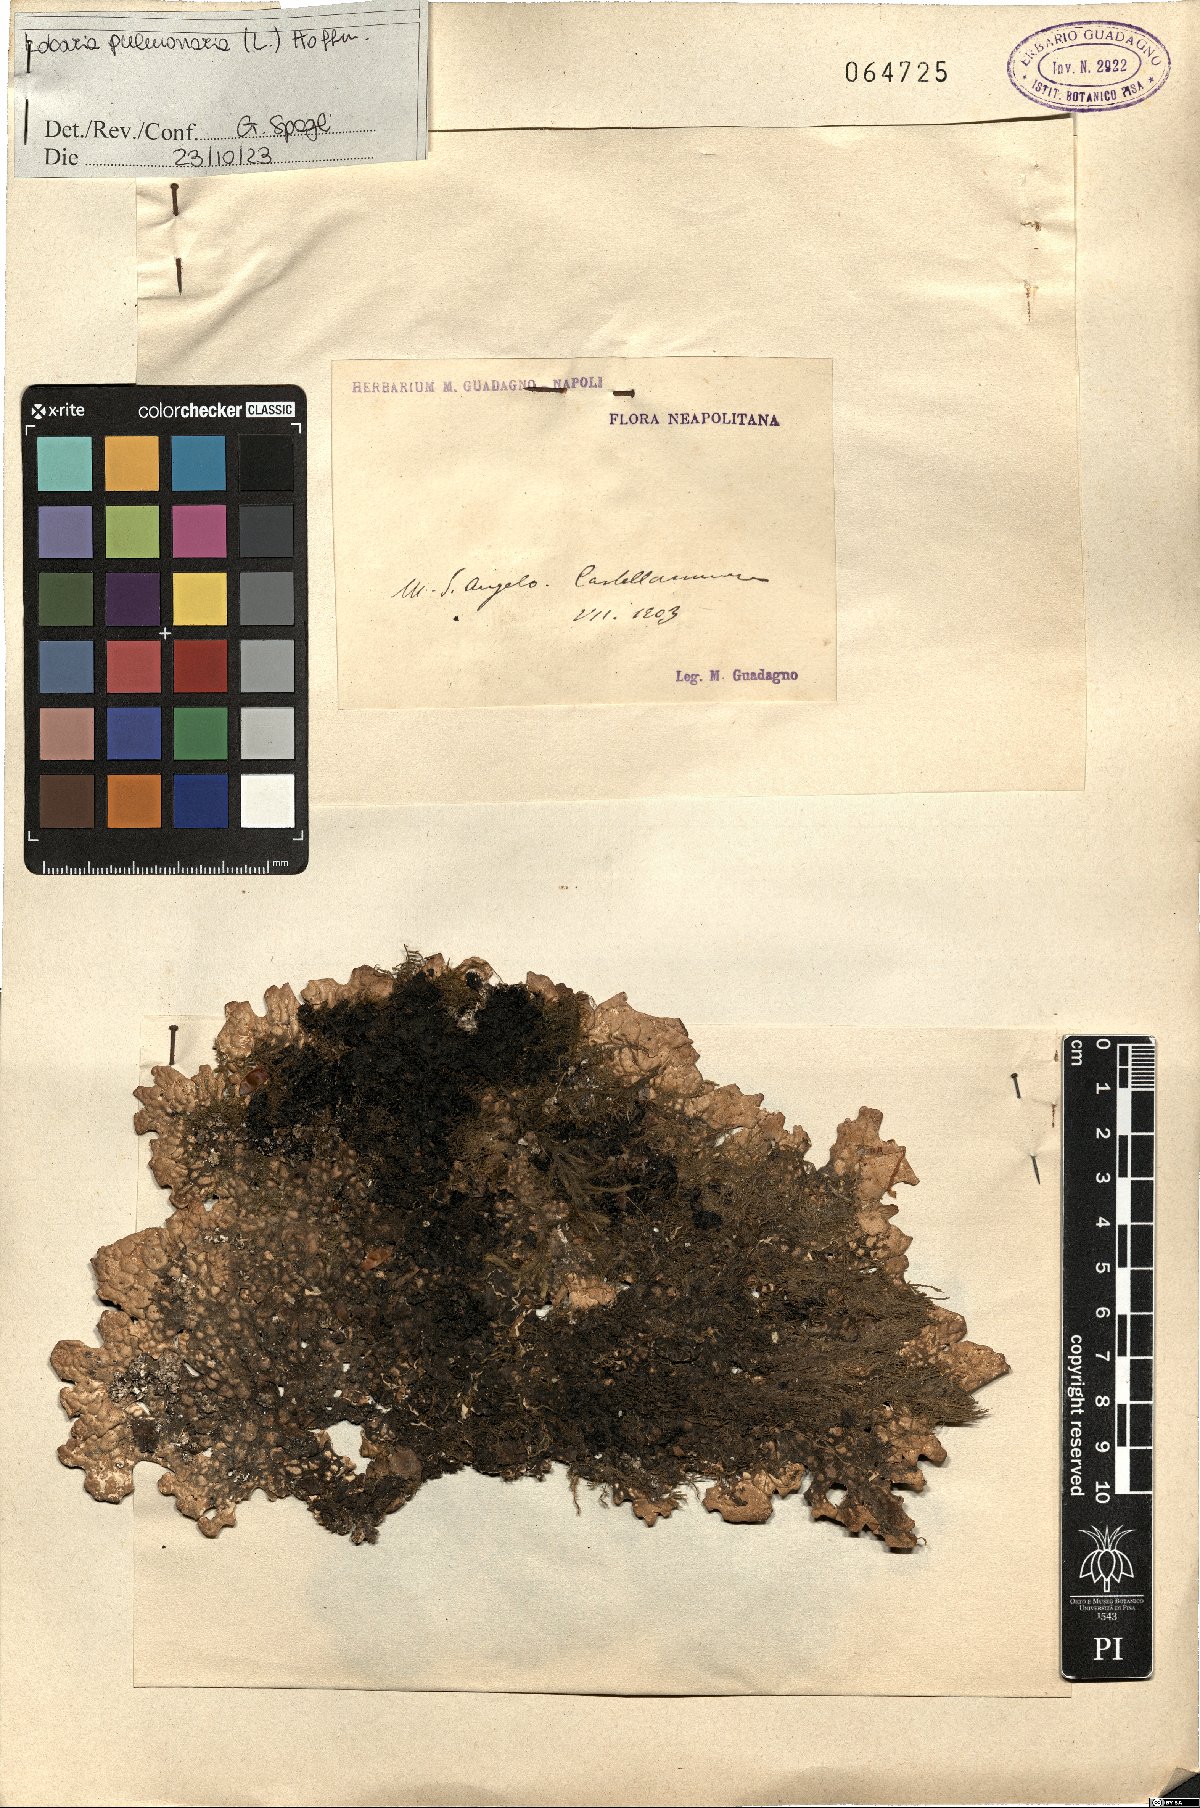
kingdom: Fungi
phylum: Ascomycota
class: Lecanoromycetes
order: Peltigerales
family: Lobariaceae
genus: Lobaria
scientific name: Lobaria pulmonaria
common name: Lungwort
